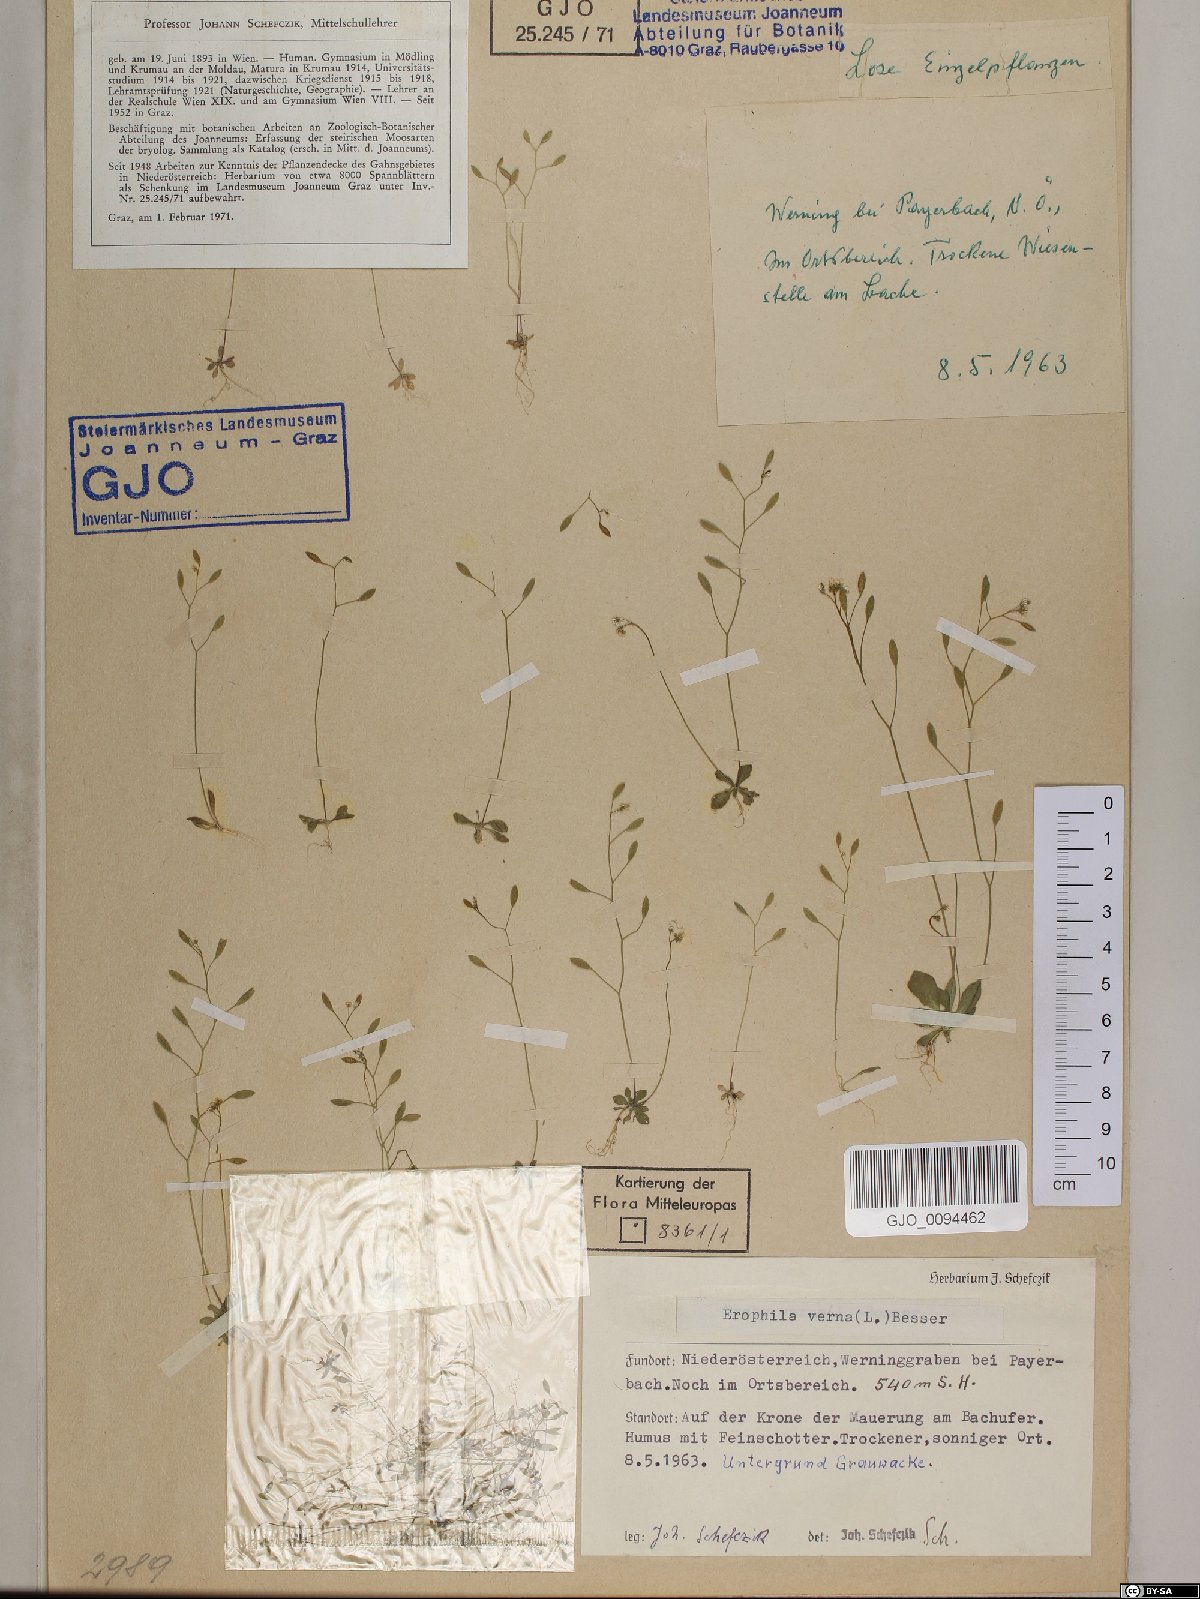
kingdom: Plantae
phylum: Tracheophyta
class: Magnoliopsida
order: Brassicales
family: Brassicaceae
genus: Draba
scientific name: Draba verna
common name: Spring draba
